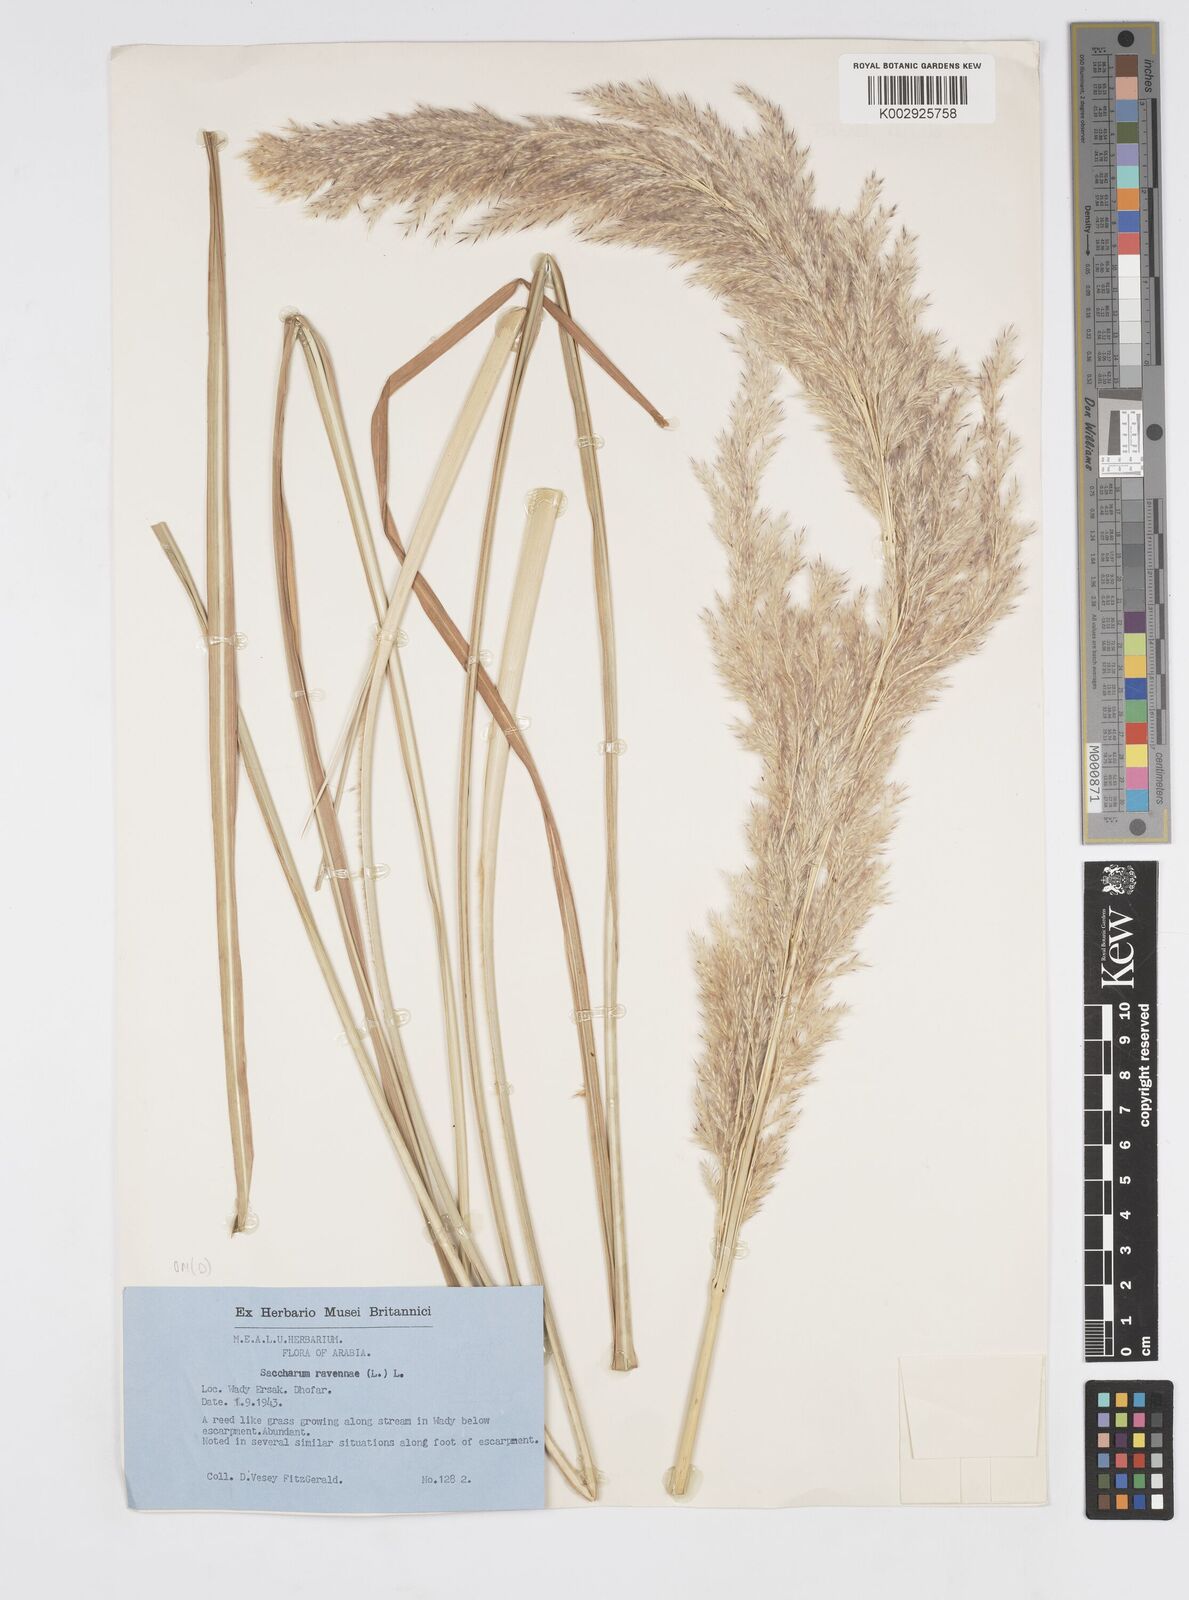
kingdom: Plantae
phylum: Tracheophyta
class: Liliopsida
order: Poales
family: Poaceae
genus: Tripidium
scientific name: Tripidium ravennae
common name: Ravenna grass
